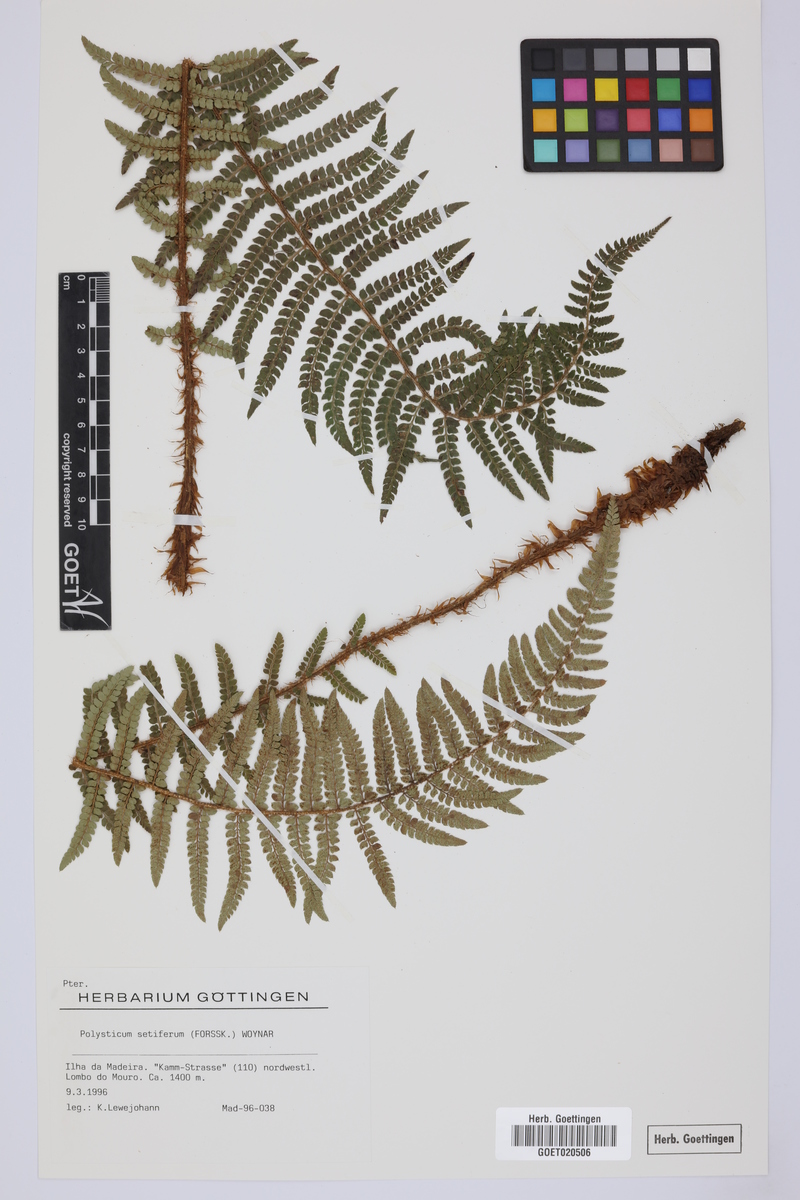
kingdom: Plantae
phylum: Tracheophyta
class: Polypodiopsida
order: Polypodiales
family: Dryopteridaceae
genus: Polystichum
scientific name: Polystichum setiferum
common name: Soft shield-fern
